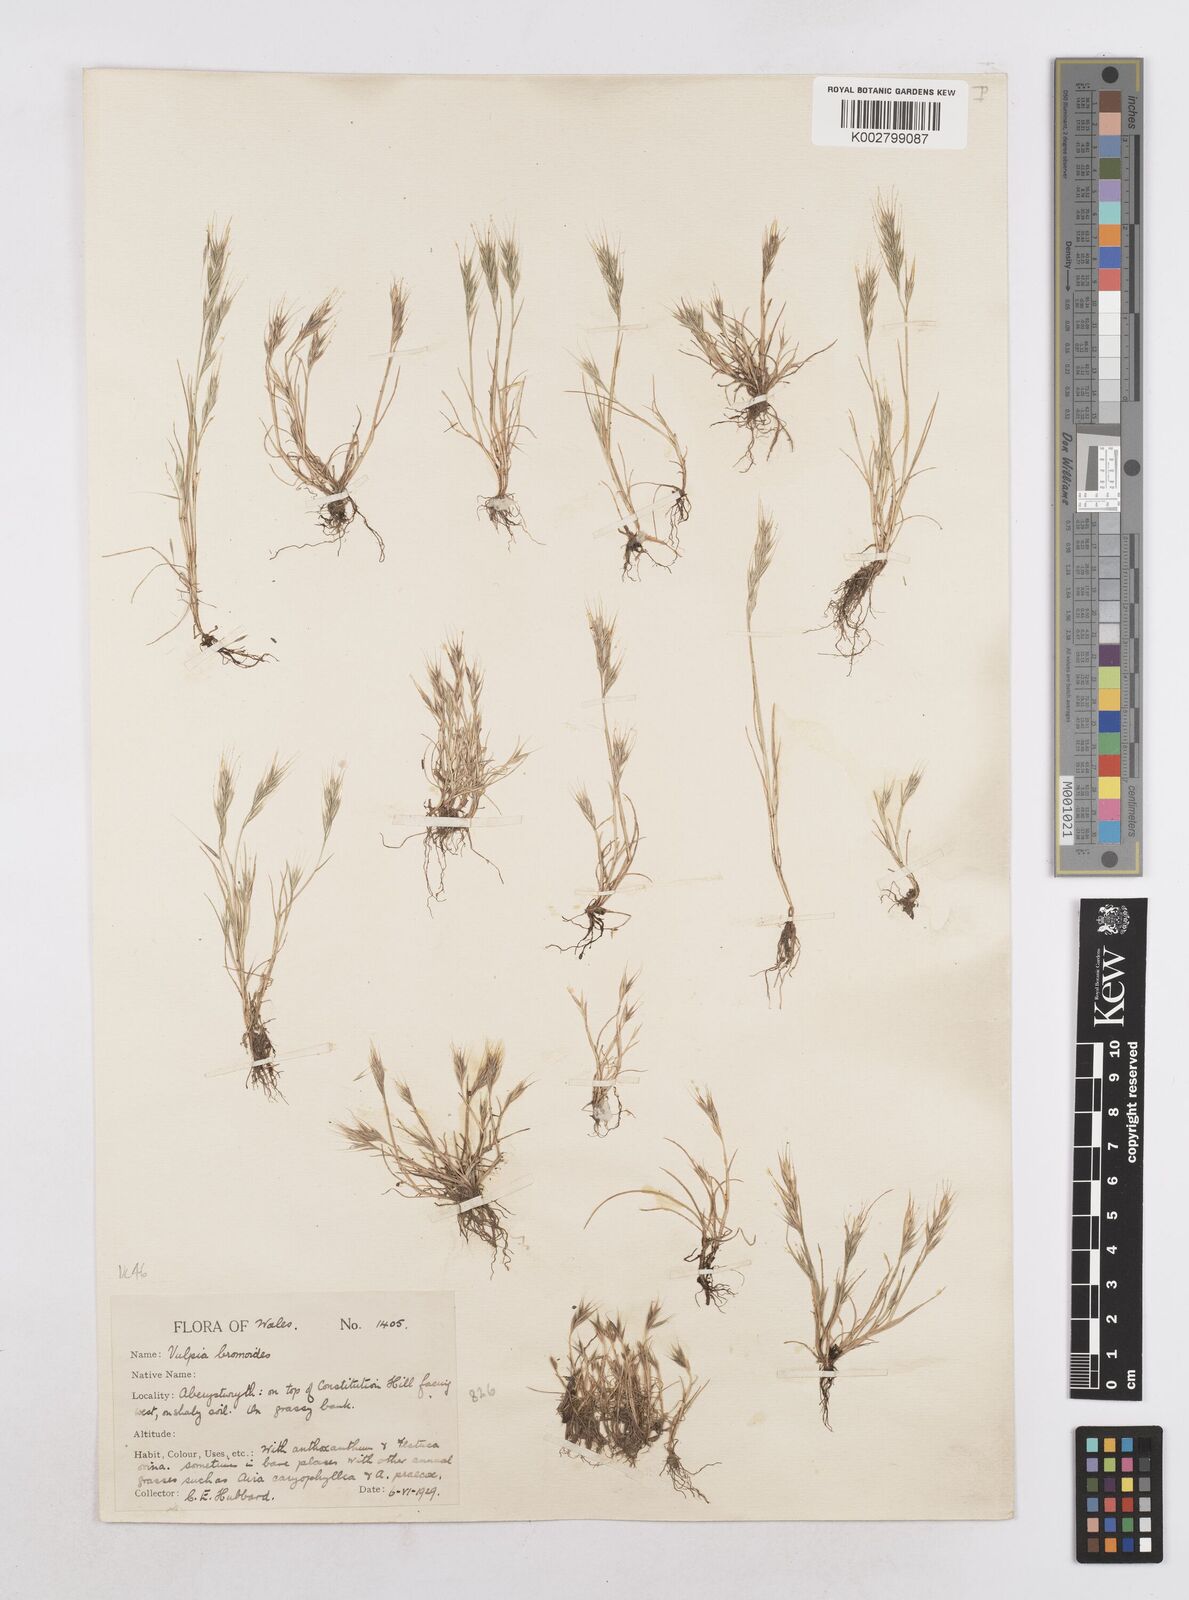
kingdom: Plantae
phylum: Tracheophyta
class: Liliopsida
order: Poales
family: Poaceae
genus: Festuca
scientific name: Festuca bromoides
